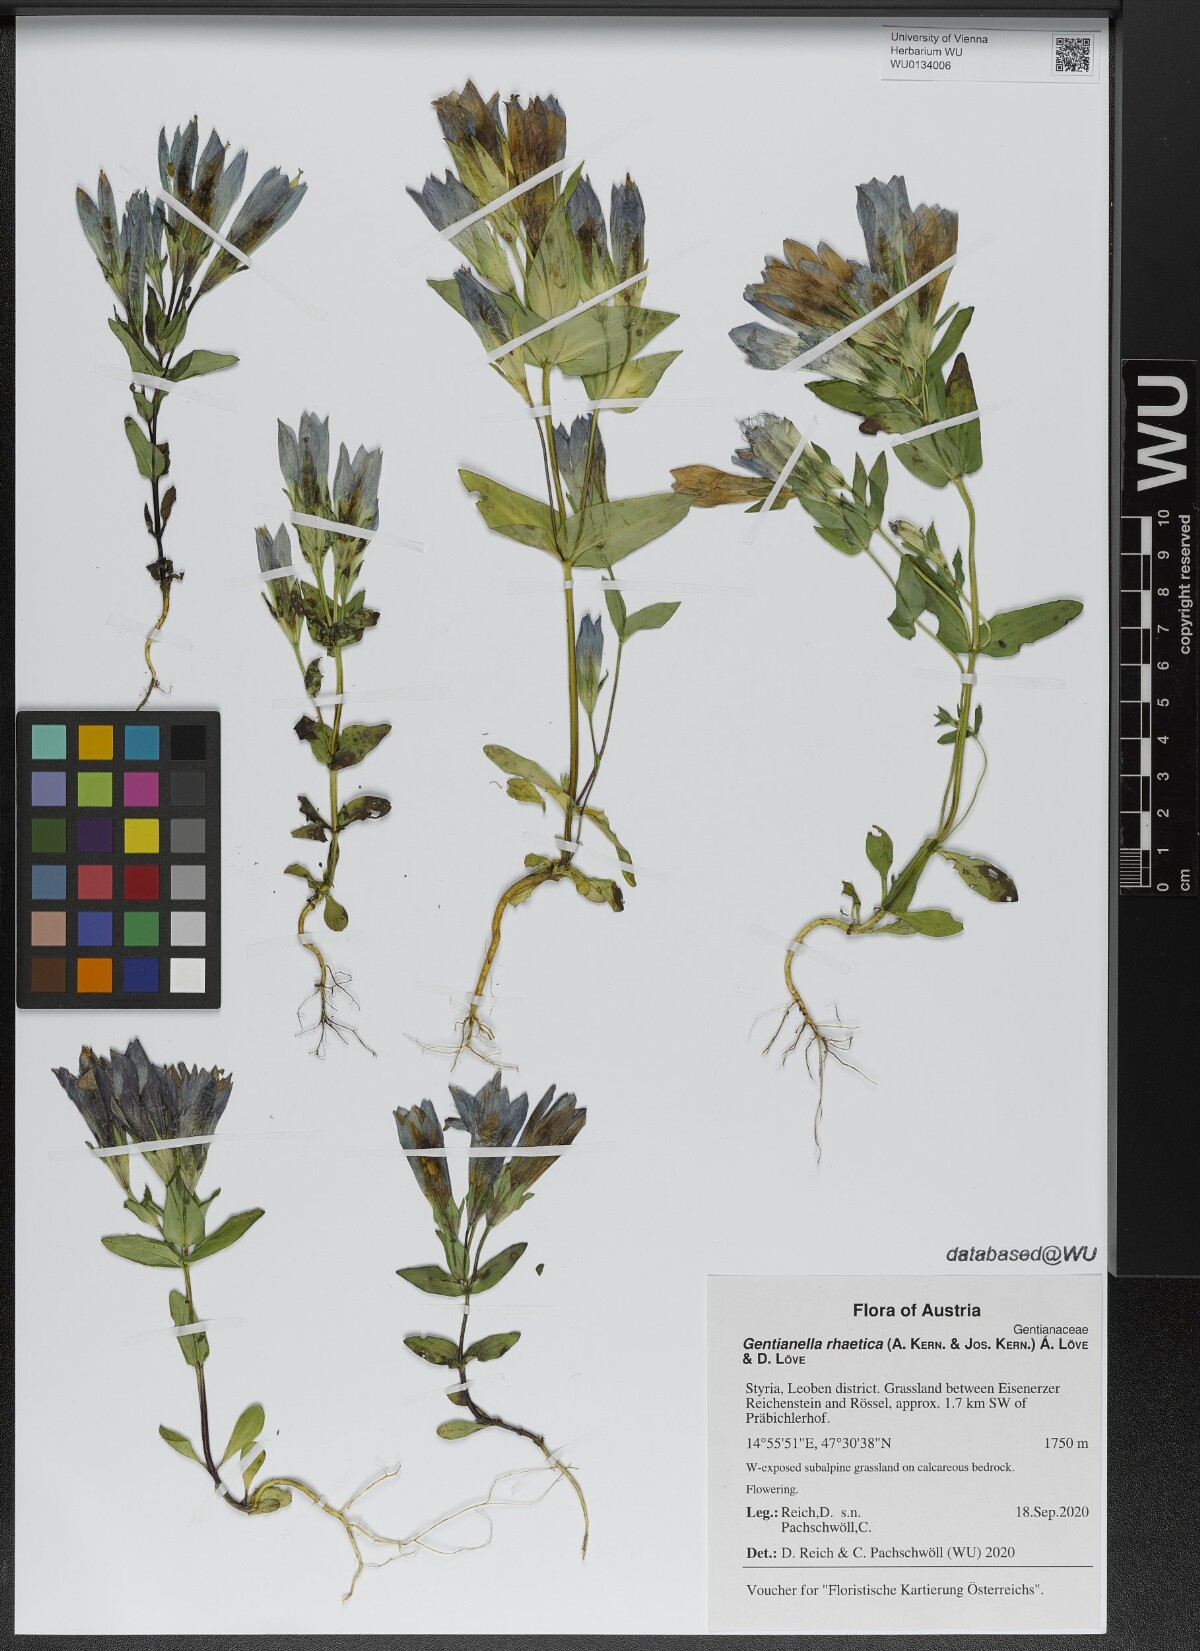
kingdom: Plantae
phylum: Tracheophyta
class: Magnoliopsida
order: Gentianales
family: Gentianaceae
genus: Gentianella
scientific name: Gentianella rhaetica
